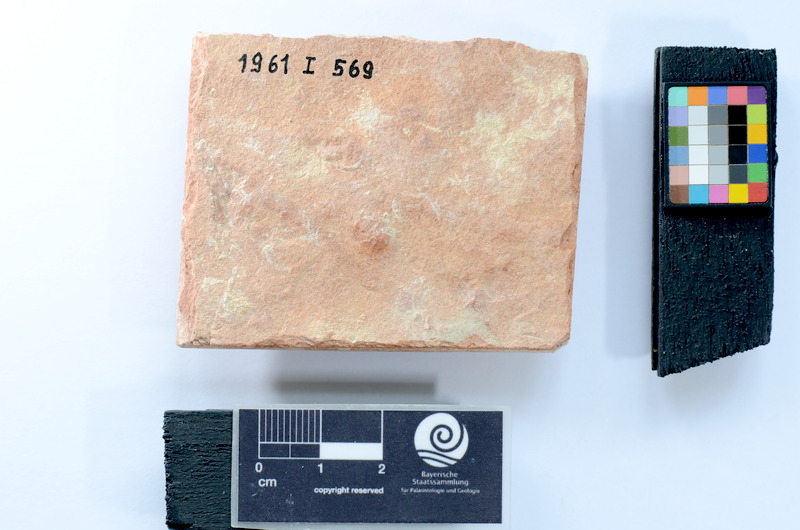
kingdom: Animalia
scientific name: Animalia
